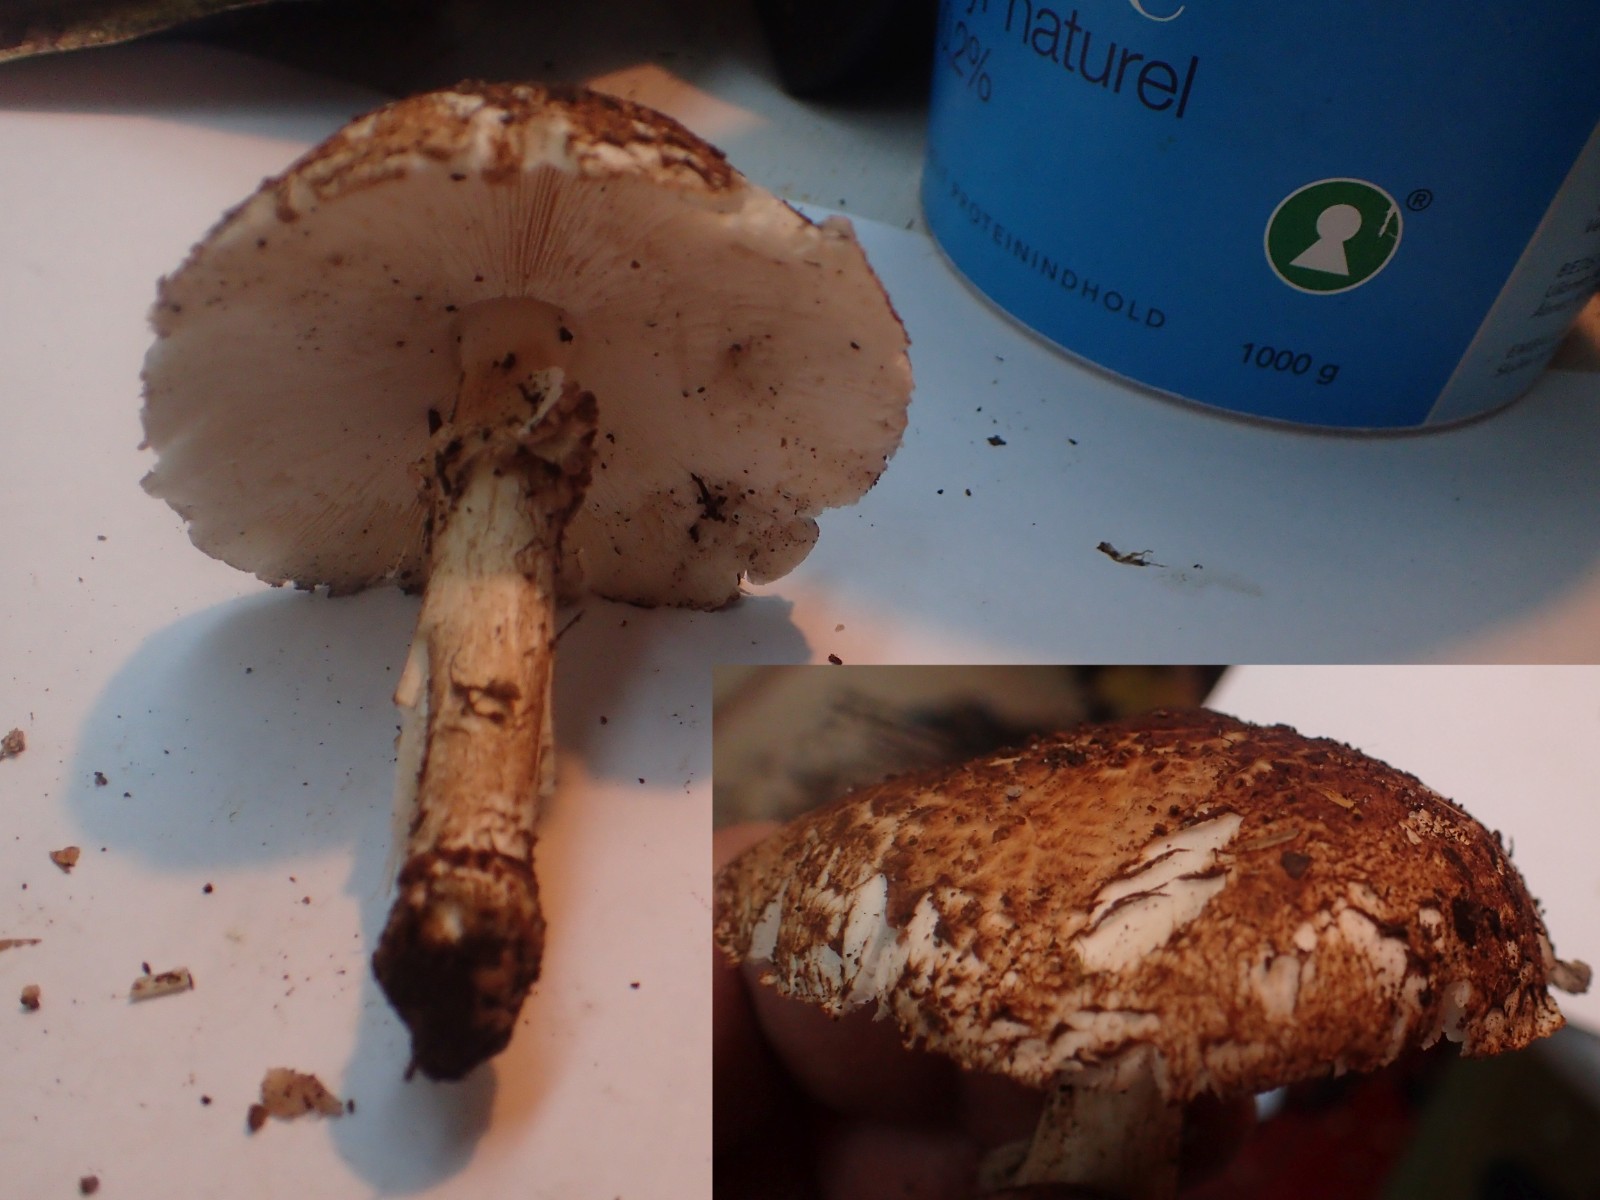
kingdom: Fungi
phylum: Basidiomycota
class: Agaricomycetes
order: Agaricales
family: Agaricaceae
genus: Echinoderma
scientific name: Echinoderma
